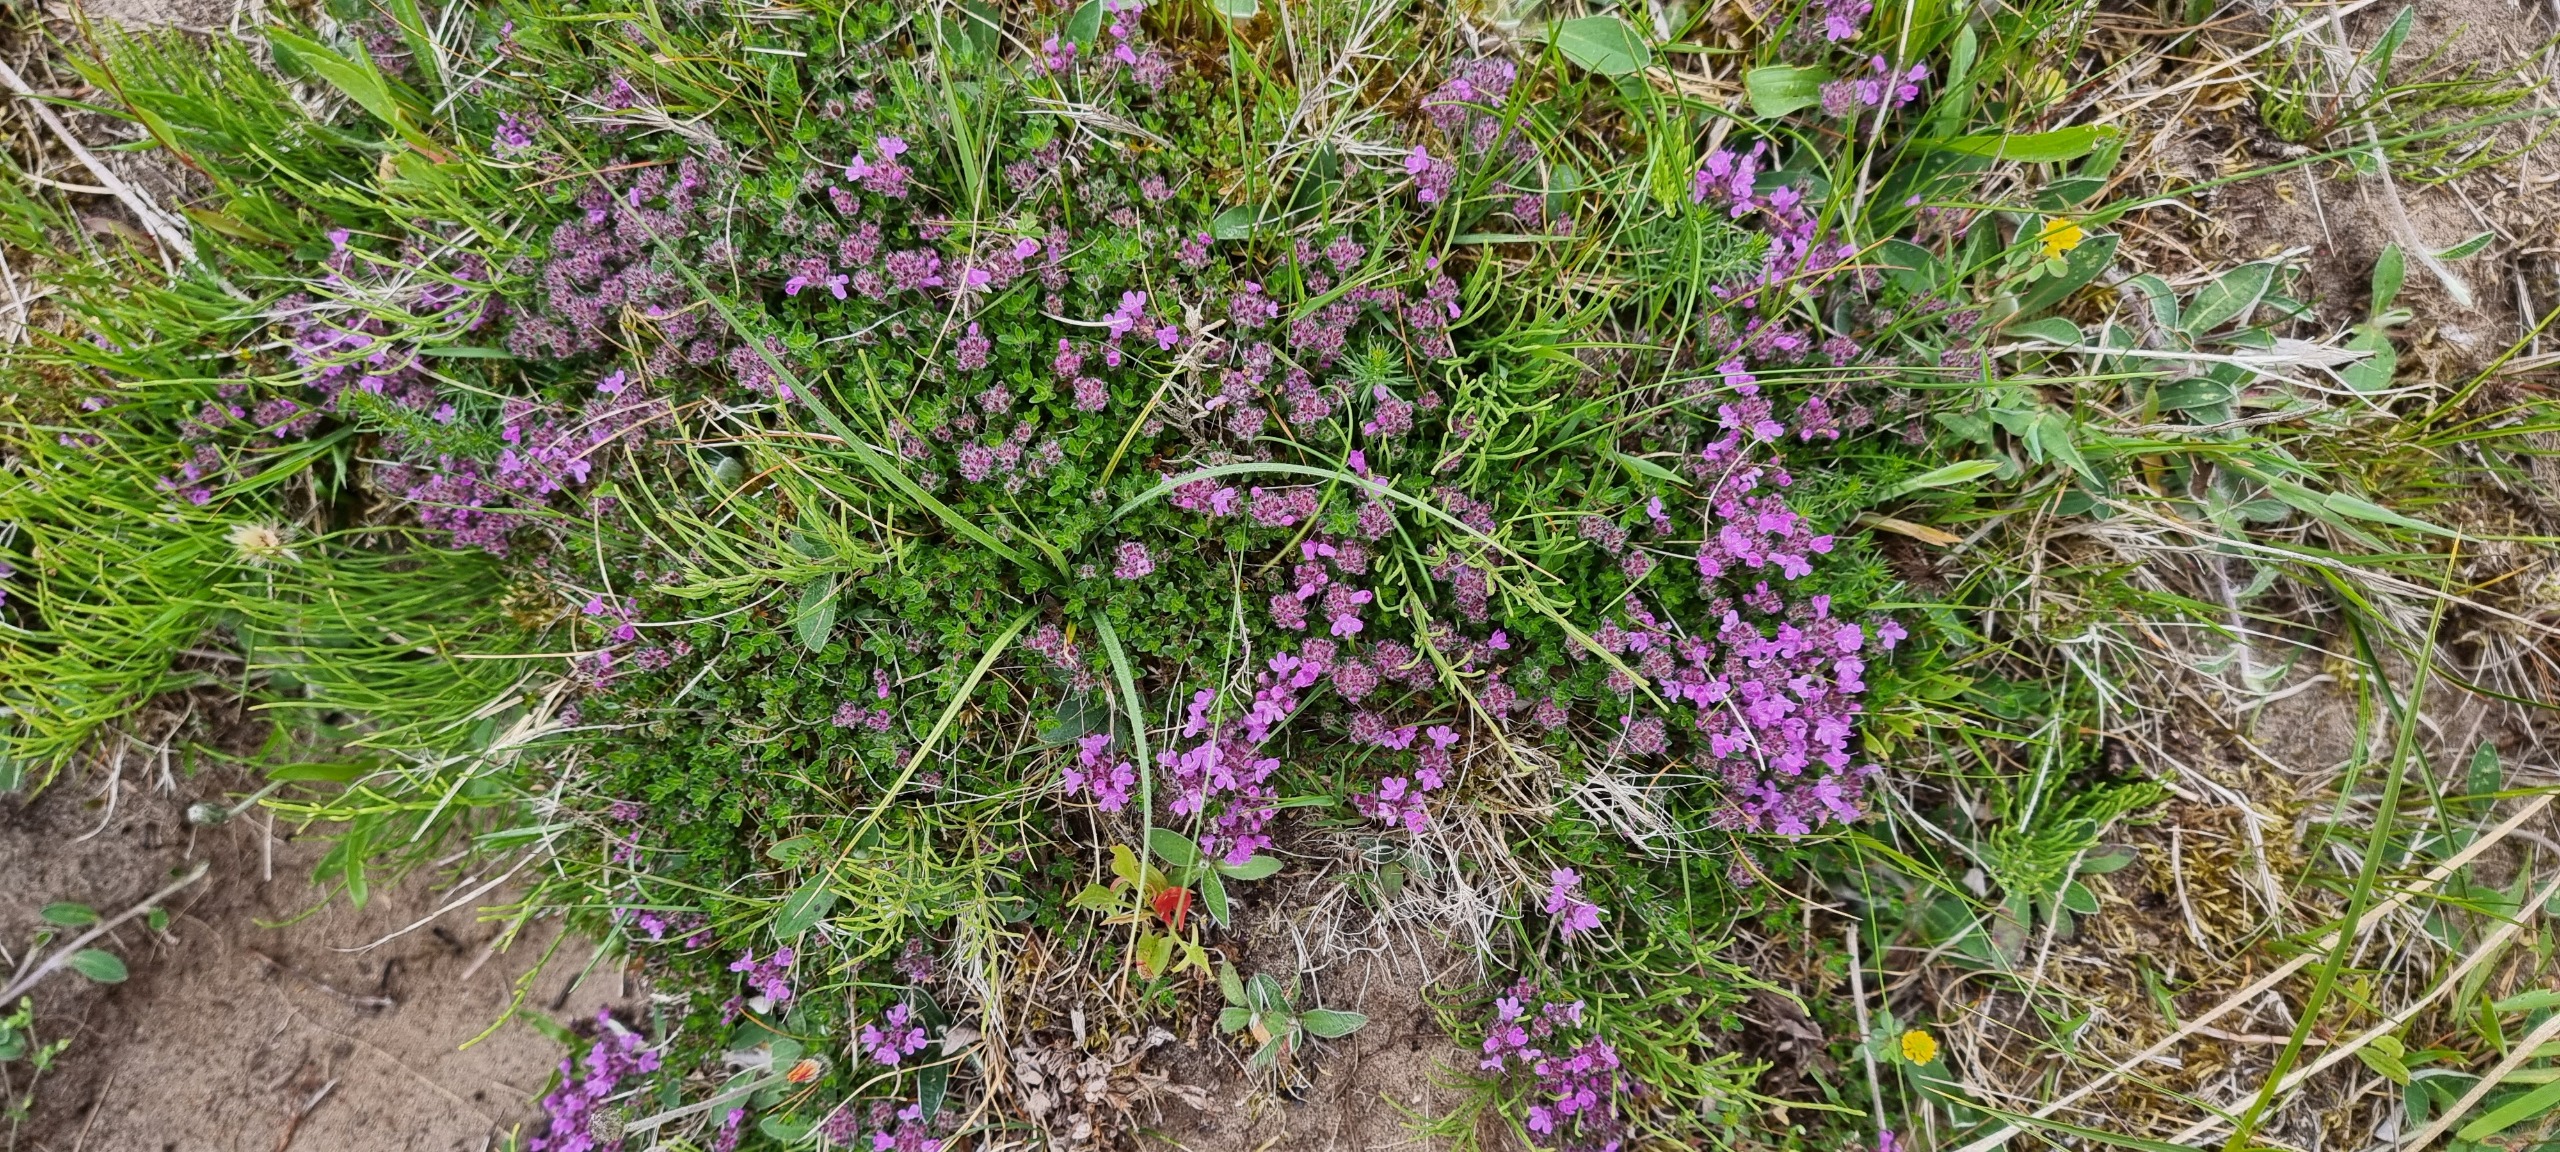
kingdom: Plantae
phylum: Tracheophyta
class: Magnoliopsida
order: Lamiales
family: Lamiaceae
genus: Thymus
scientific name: Thymus serpyllum
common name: Smalbladet timian
